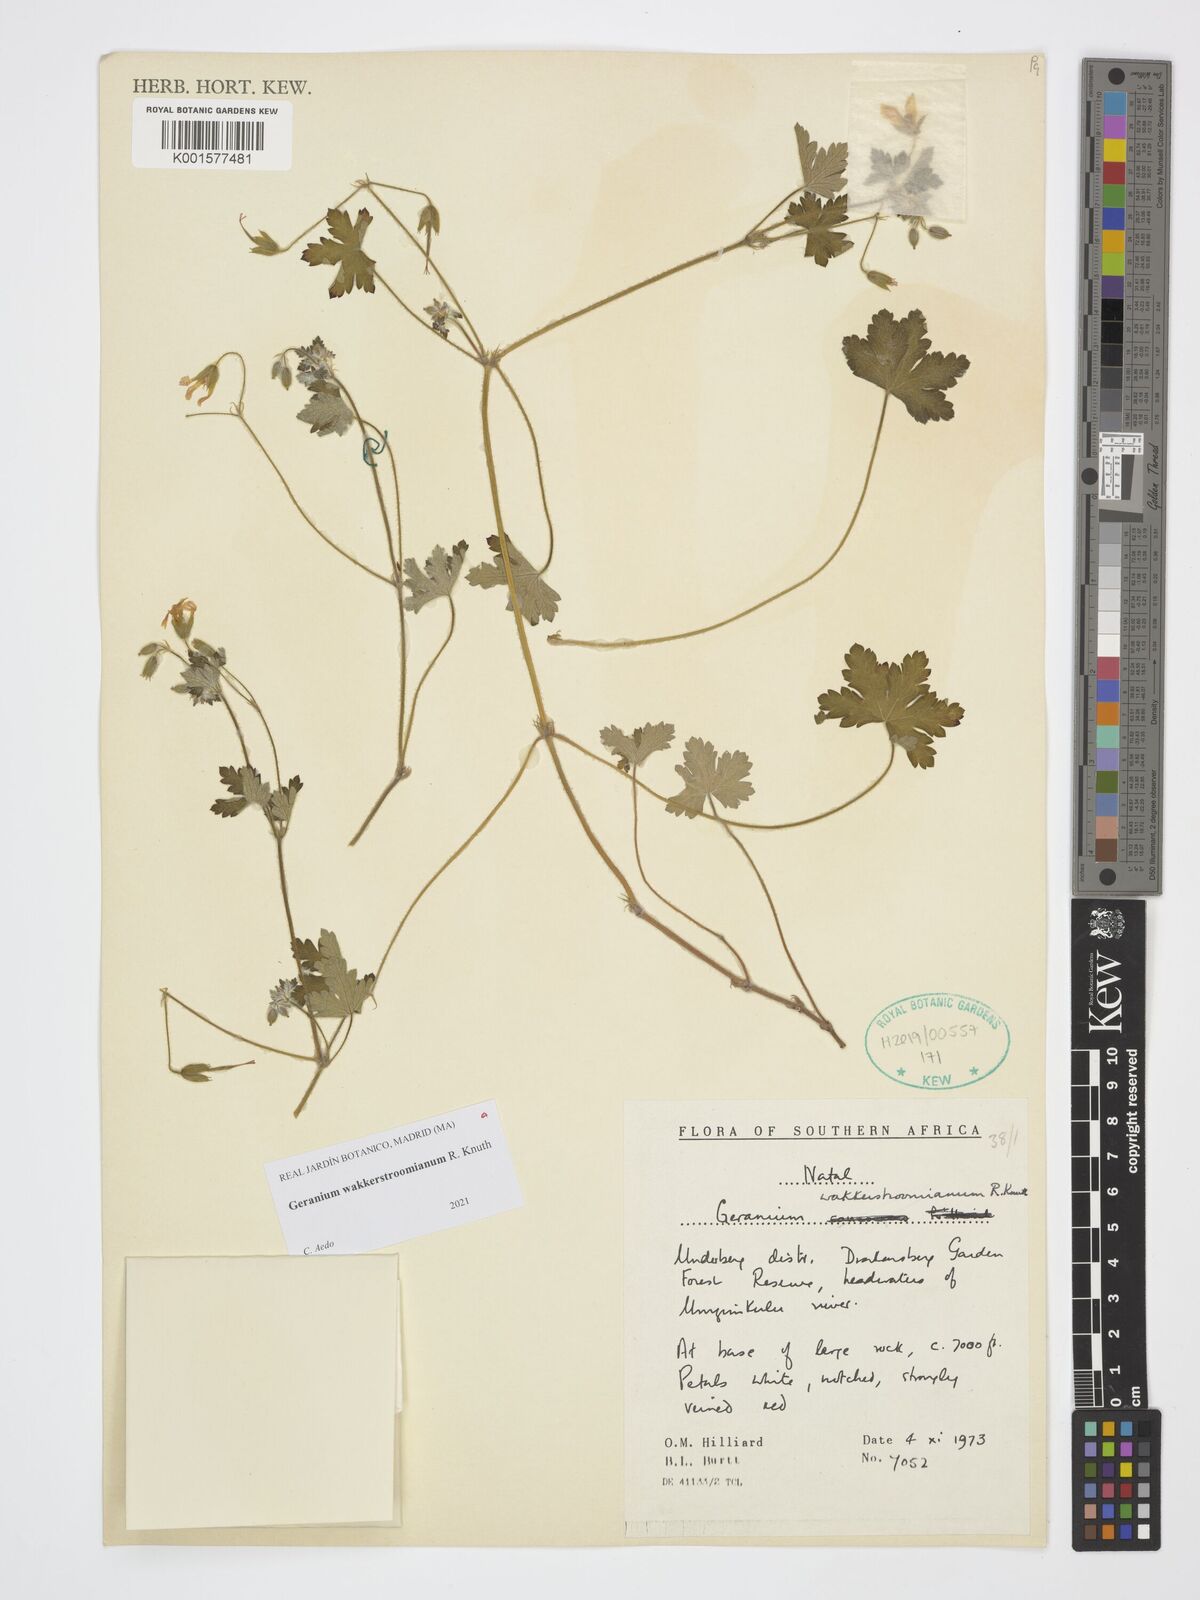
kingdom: Plantae
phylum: Tracheophyta
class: Magnoliopsida
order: Geraniales
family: Geraniaceae
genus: Geranium
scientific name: Geranium wakkerstroomianum
